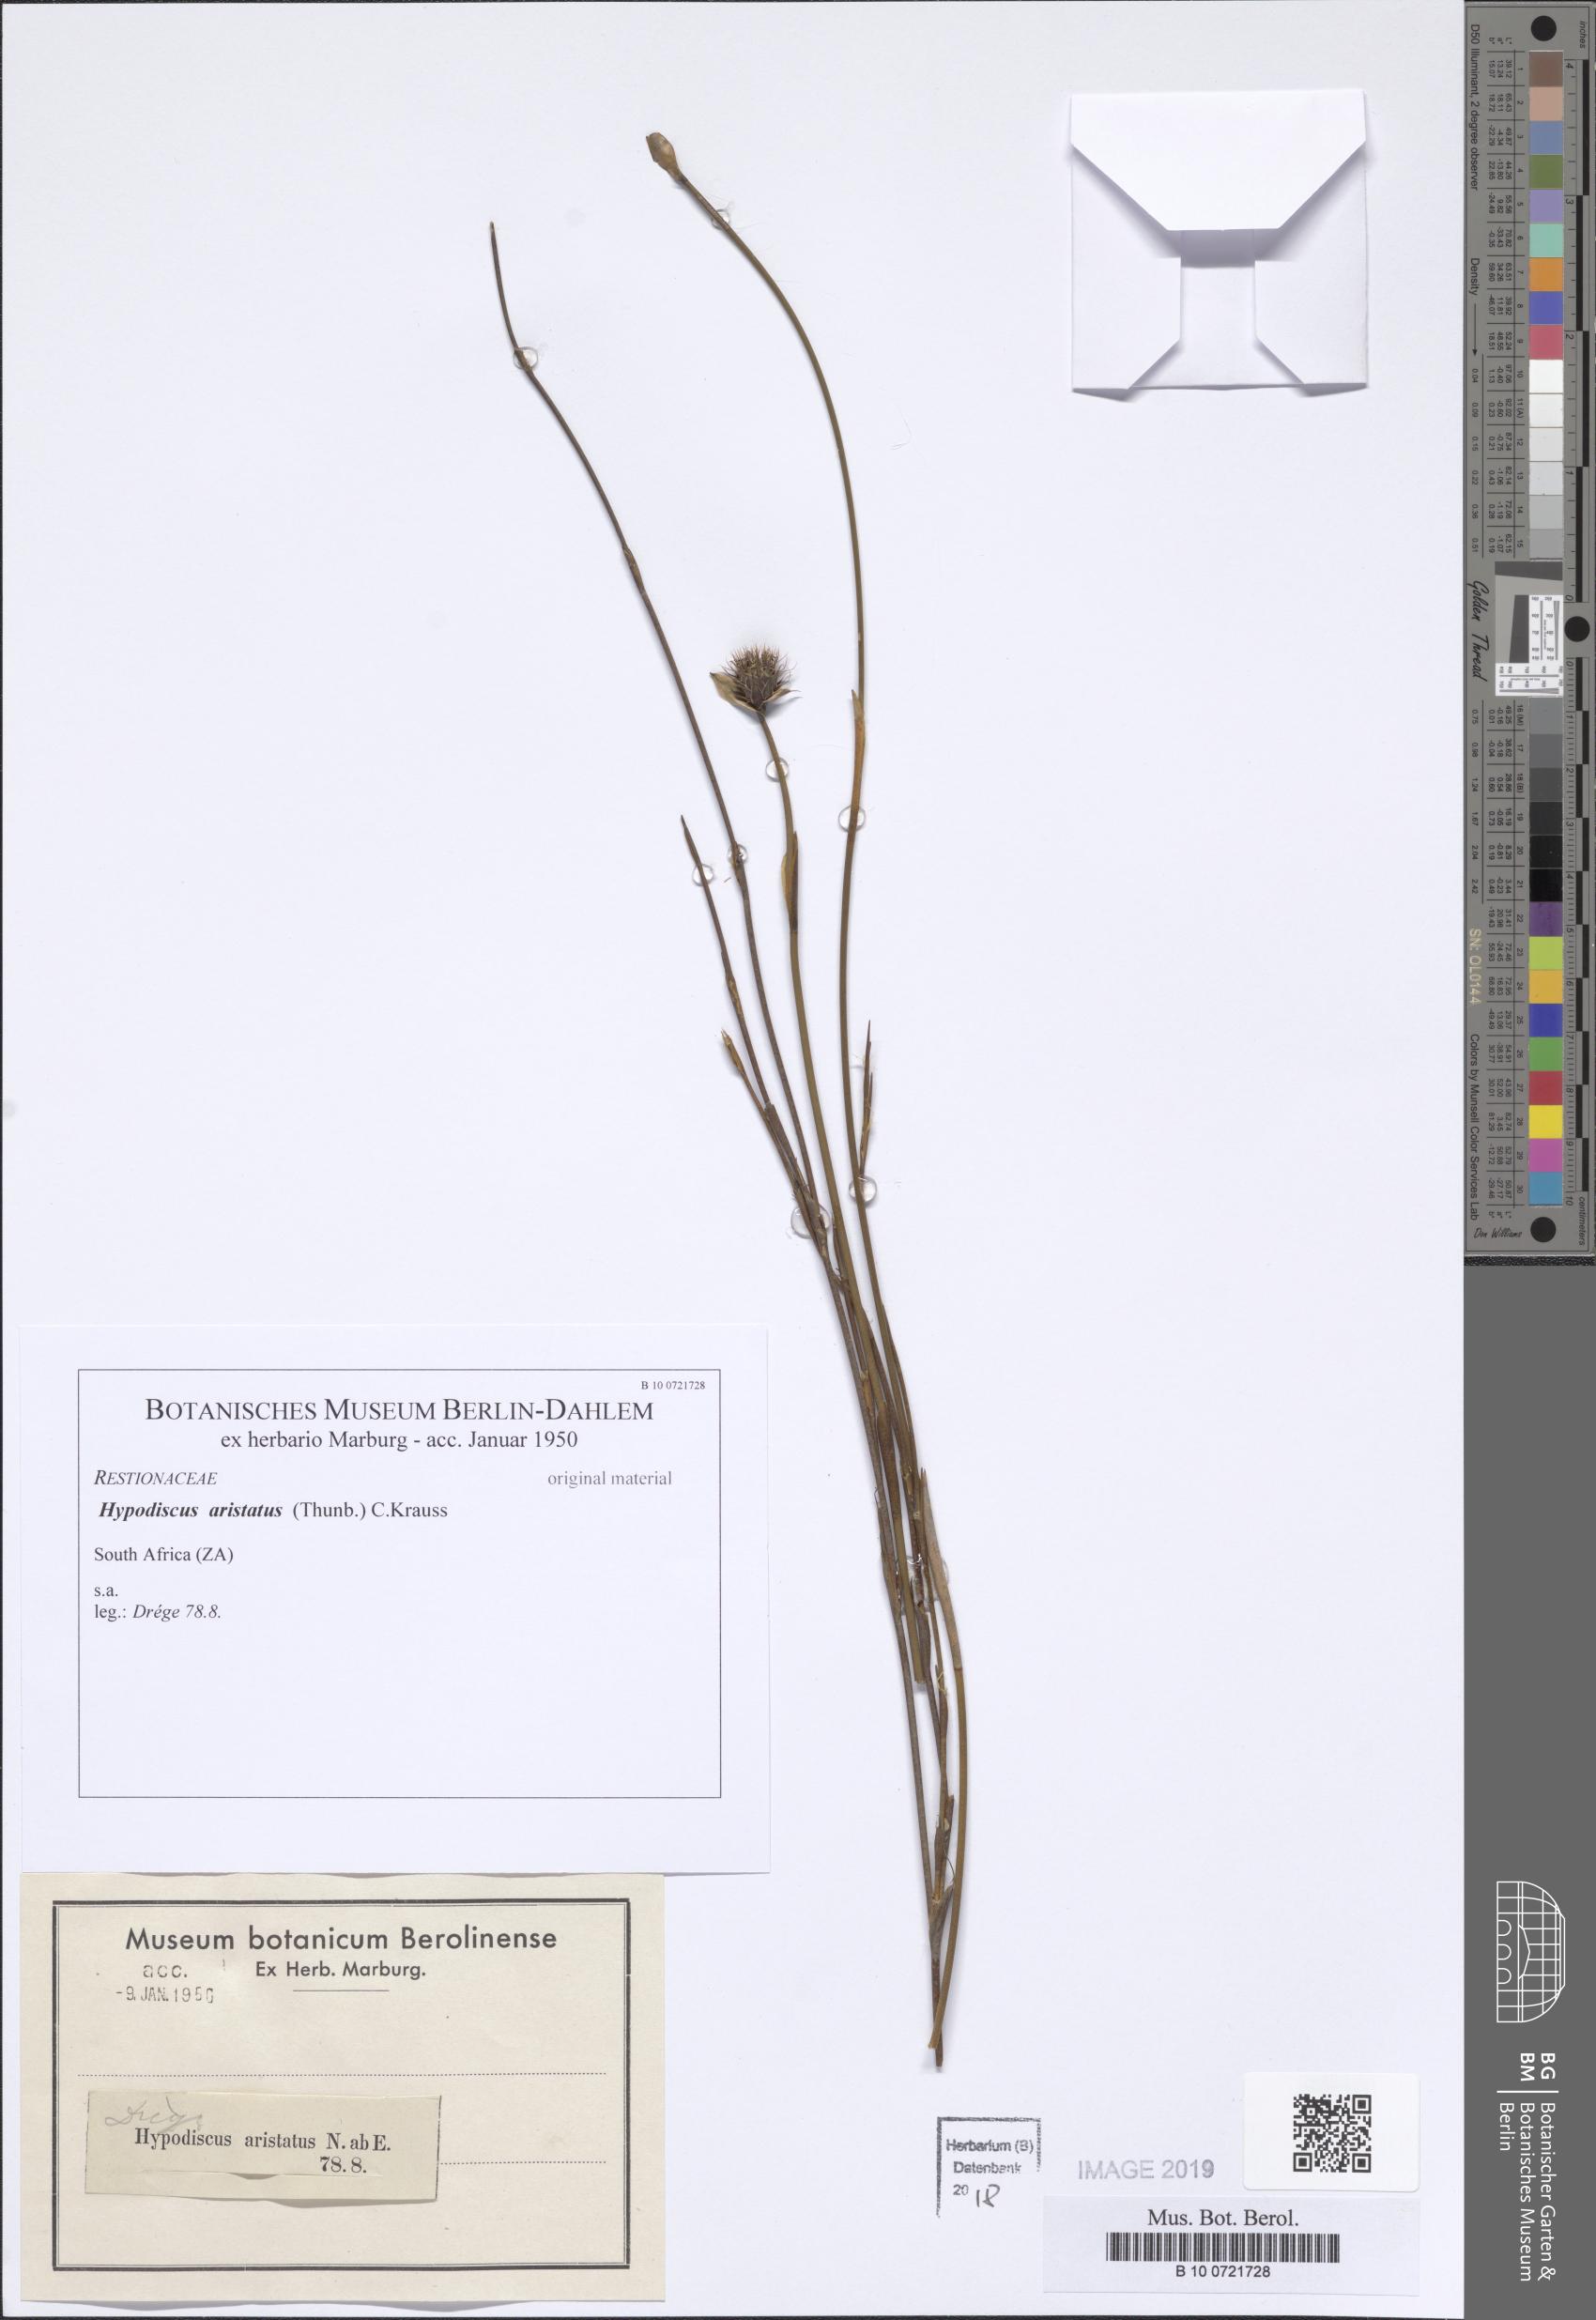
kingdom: Plantae
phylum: Tracheophyta
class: Liliopsida
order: Poales
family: Restionaceae
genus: Hypodiscus
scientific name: Hypodiscus aristatus
